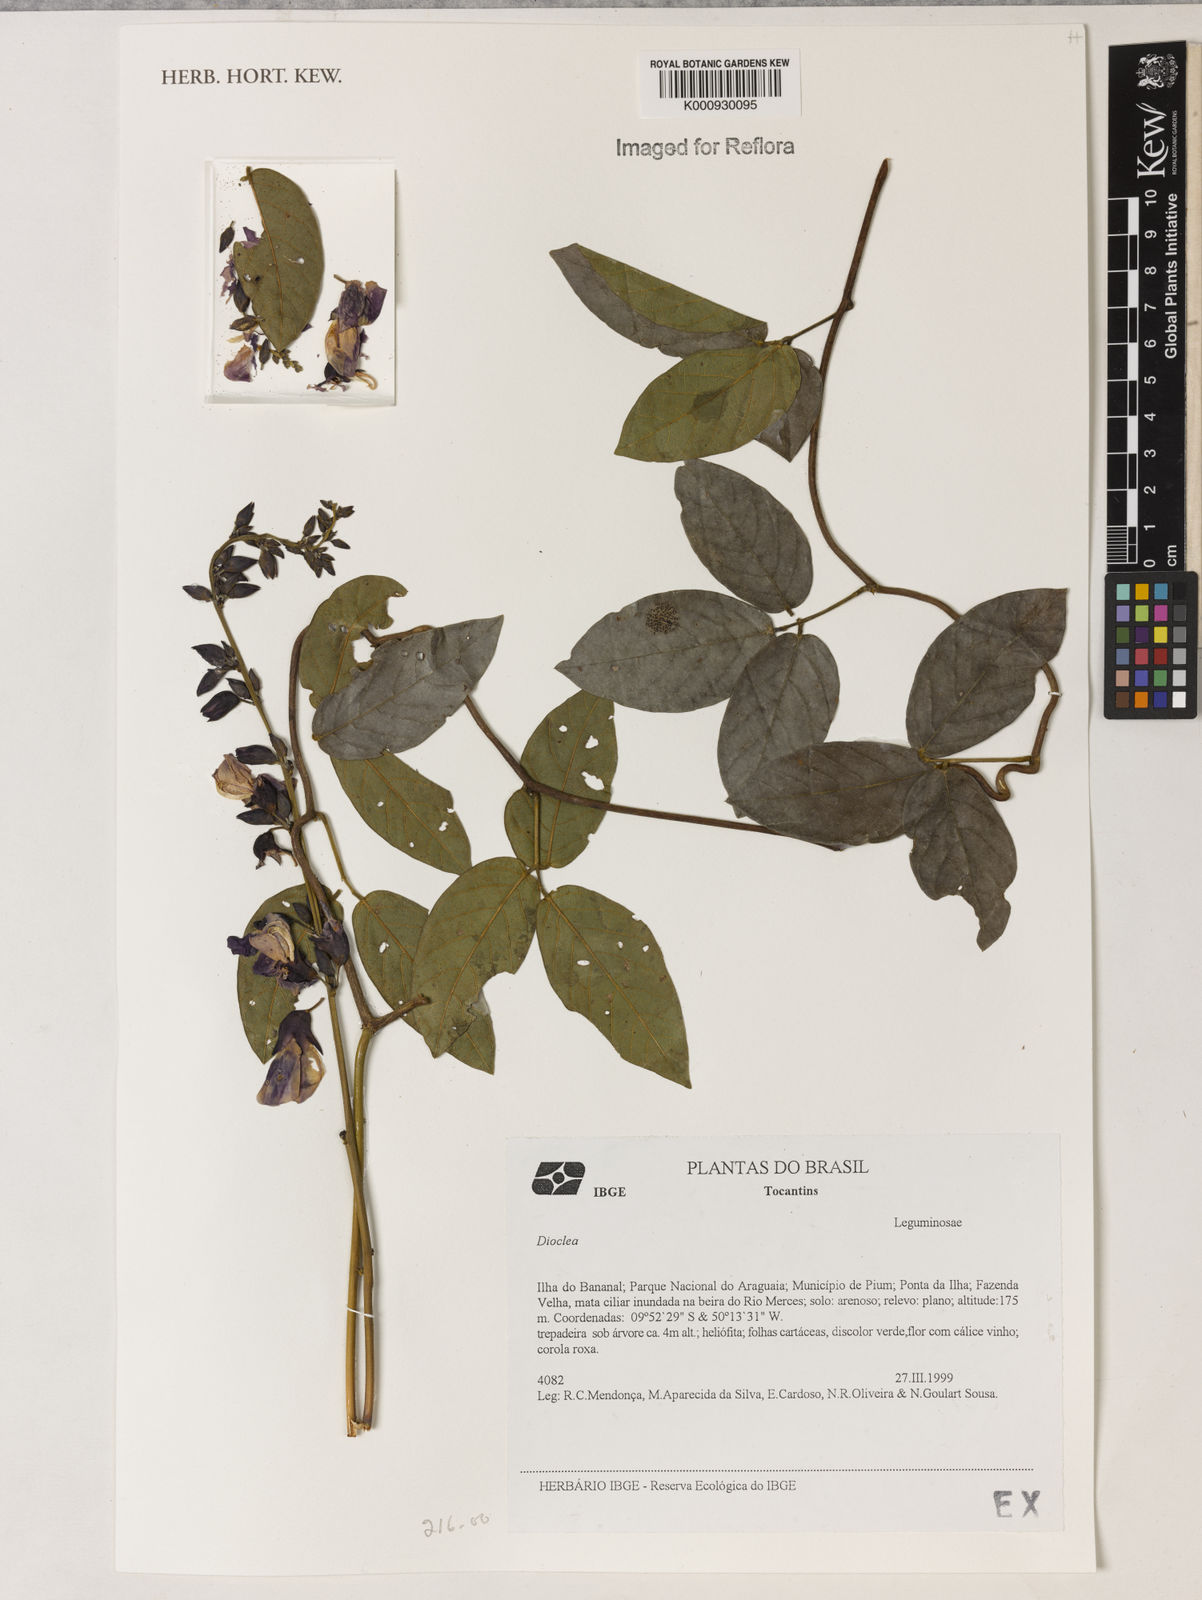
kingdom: Plantae
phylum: Tracheophyta
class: Magnoliopsida
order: Fabales
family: Fabaceae
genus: Dioclea
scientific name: Dioclea
